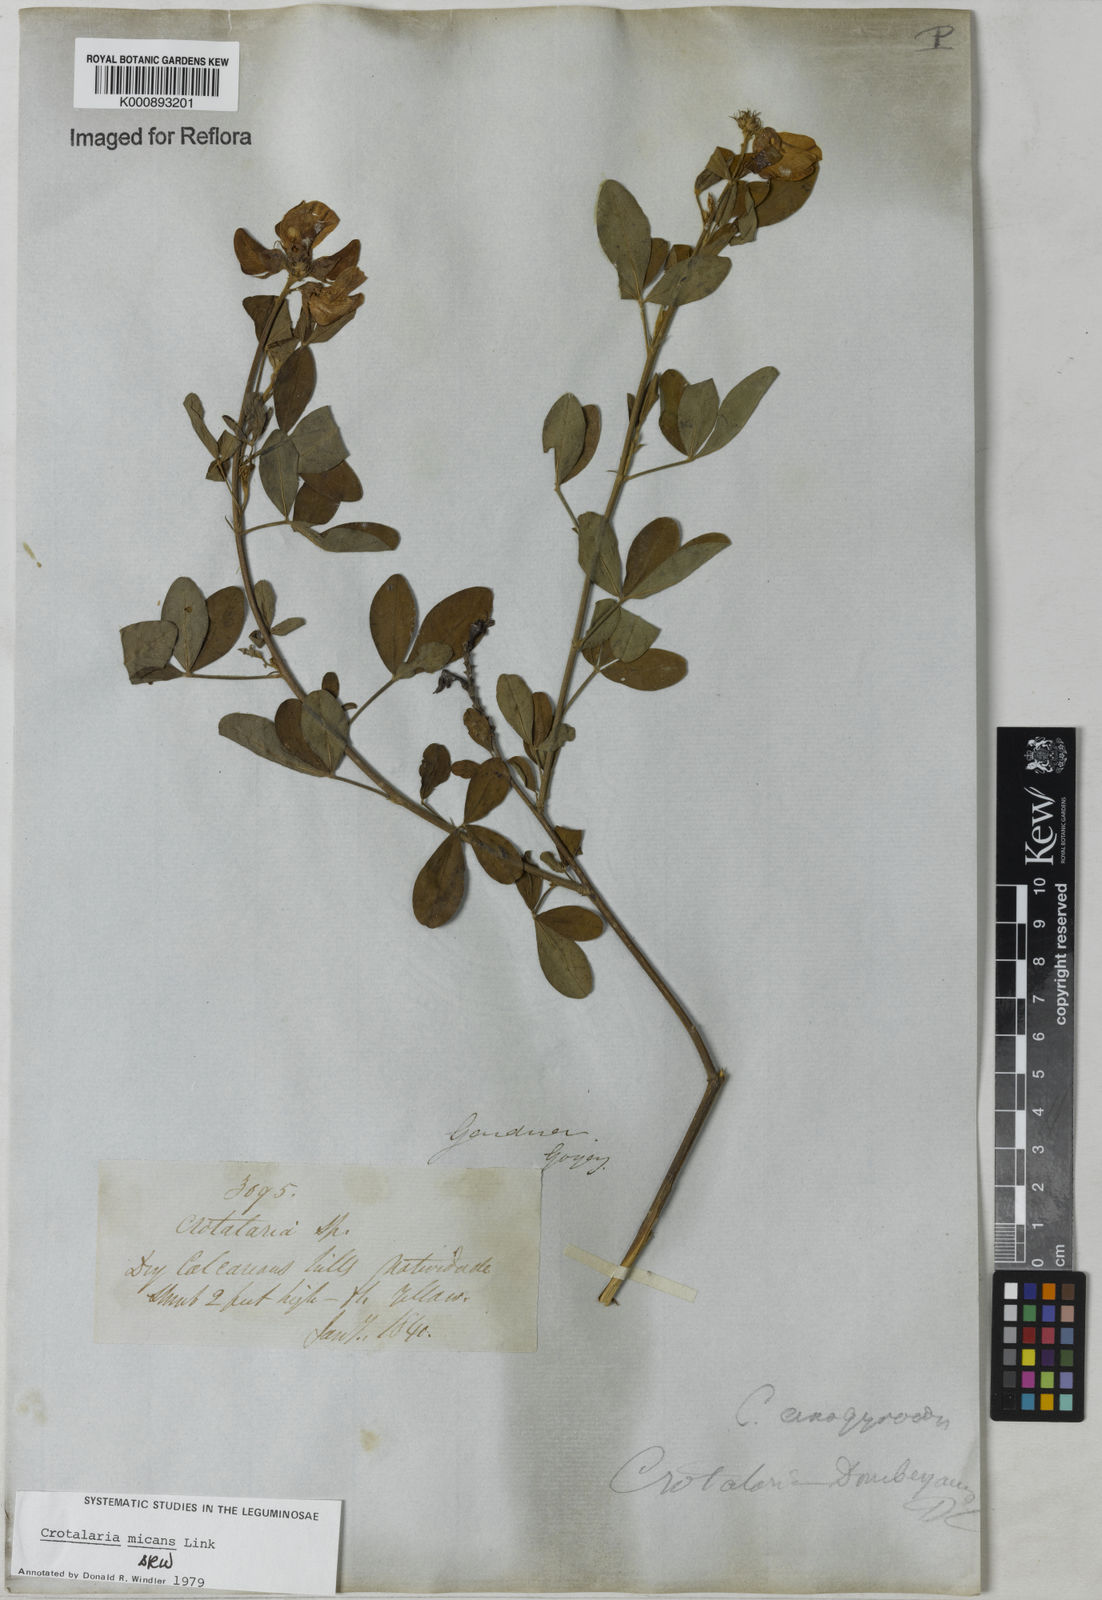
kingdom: Plantae
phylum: Tracheophyta
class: Magnoliopsida
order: Fabales
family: Fabaceae
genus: Crotalaria
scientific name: Crotalaria micans
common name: Caracas rattlebox
